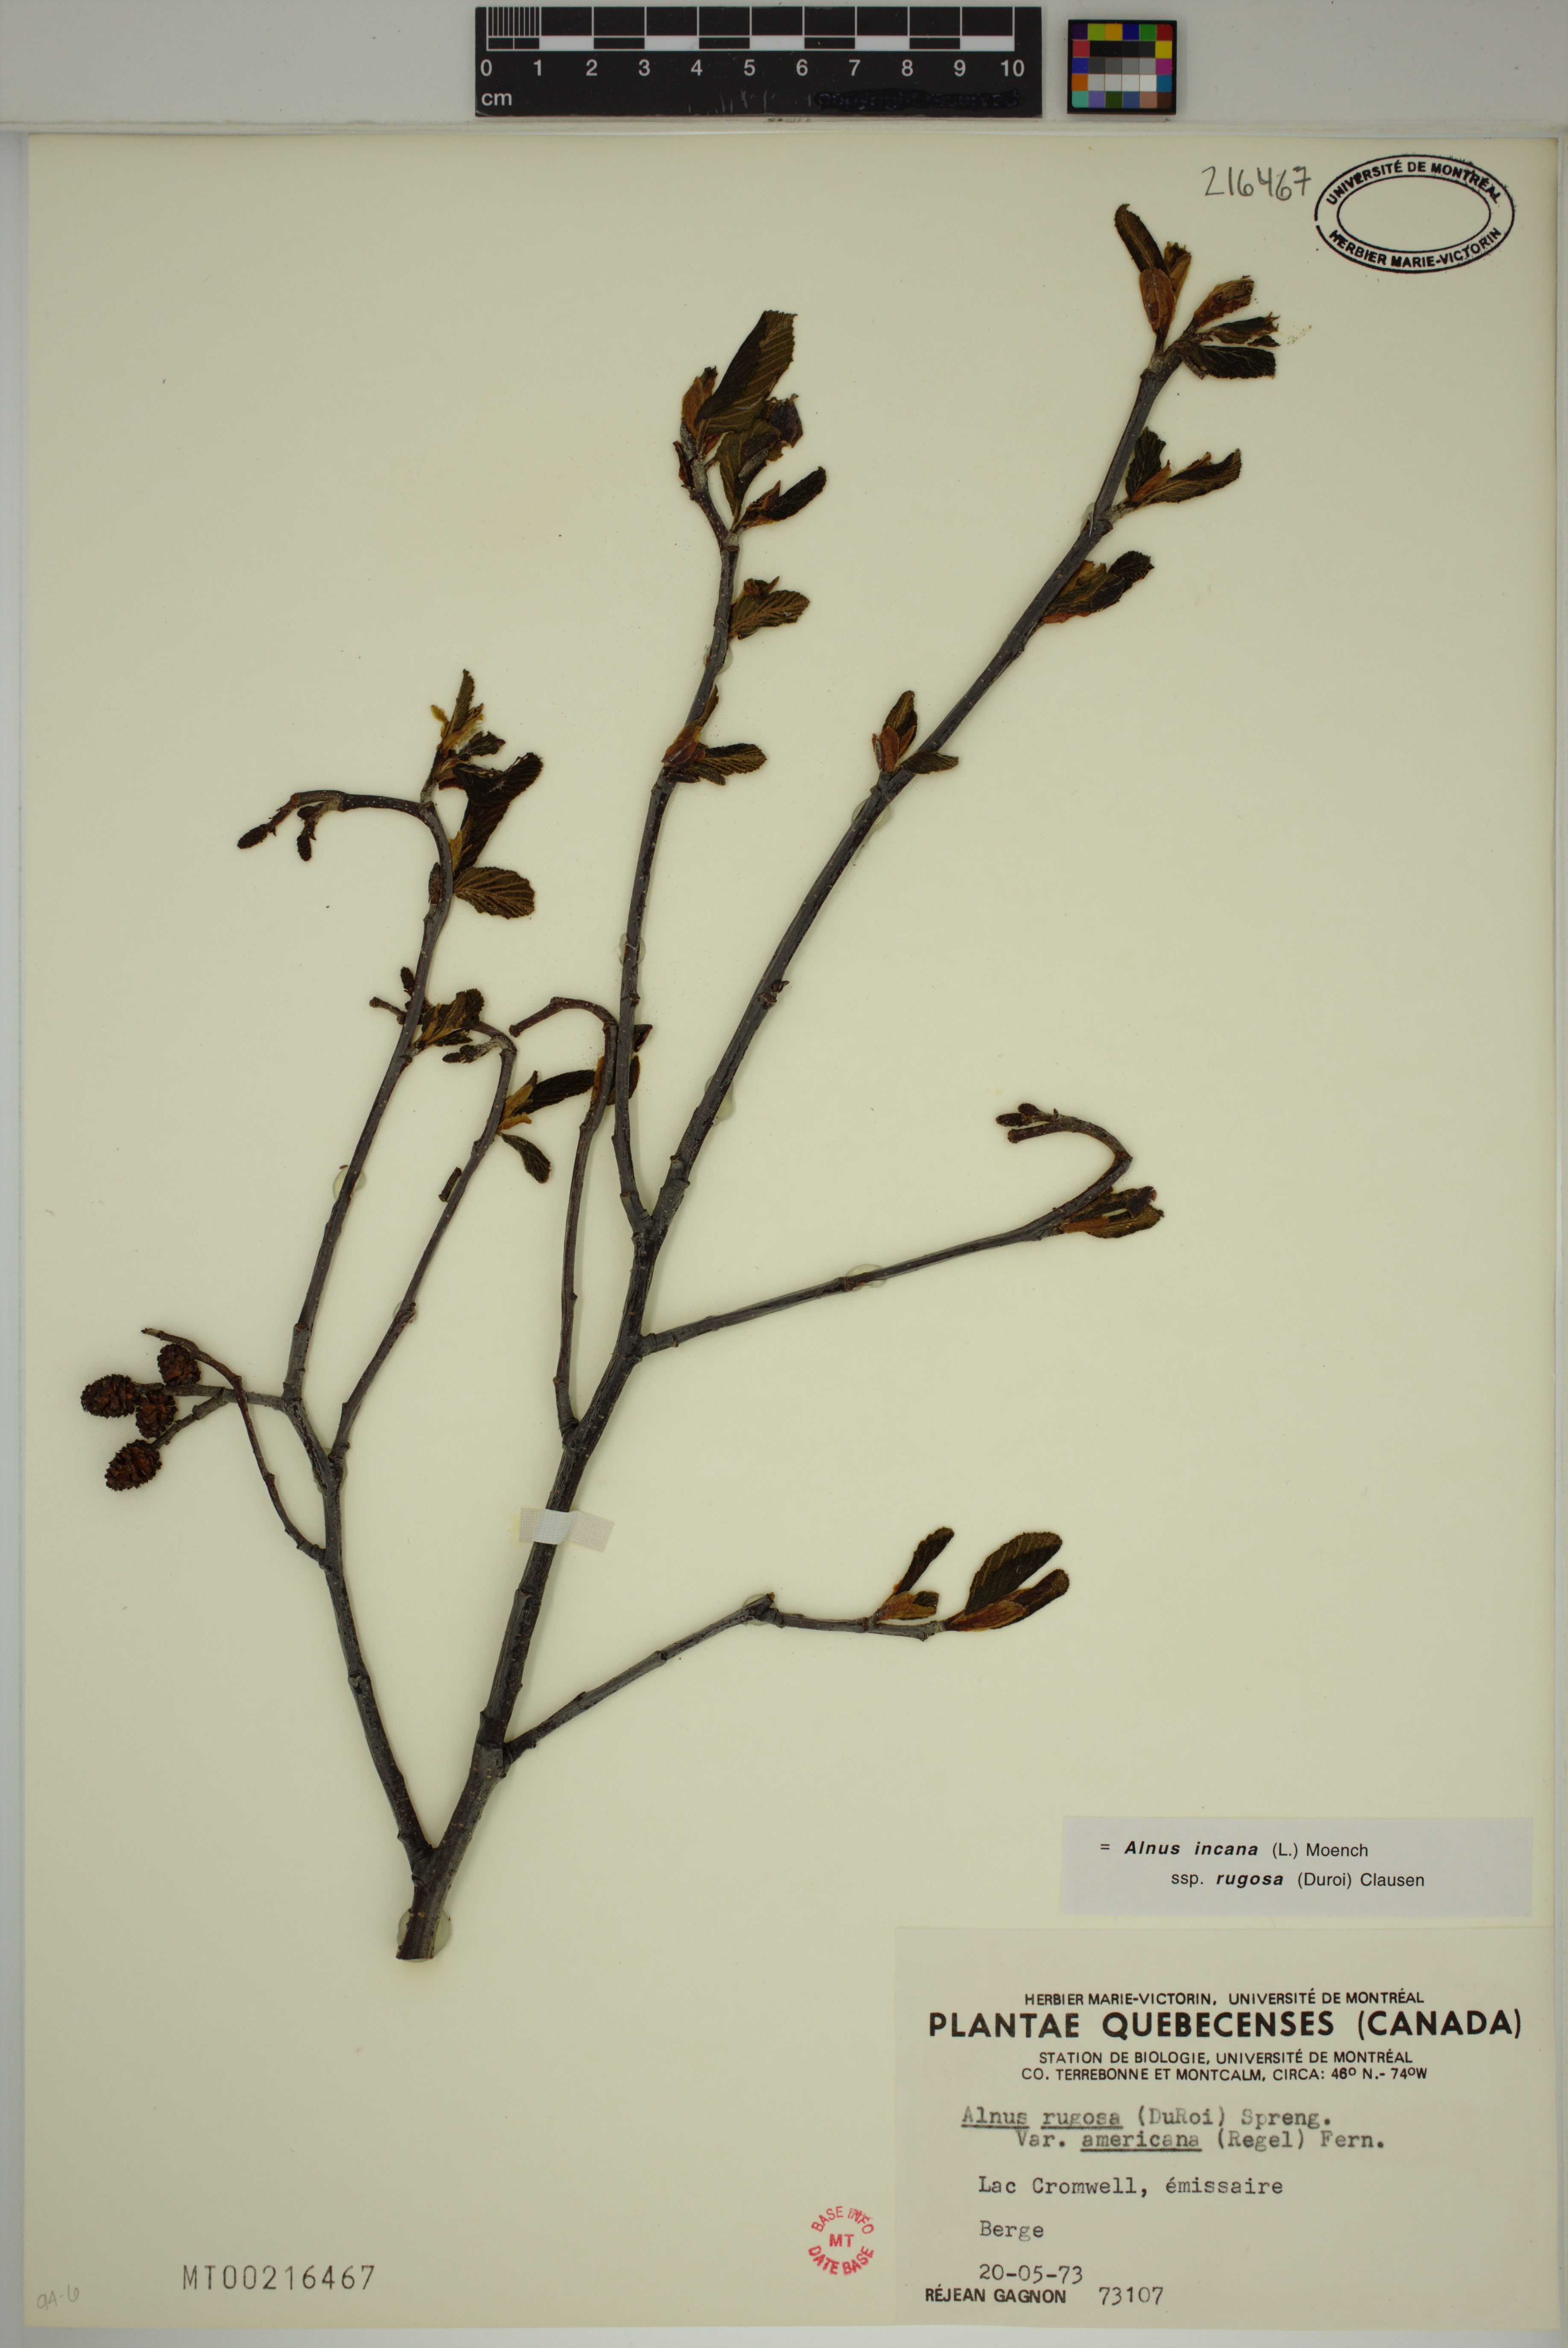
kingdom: Plantae
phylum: Tracheophyta
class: Magnoliopsida
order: Fagales
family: Betulaceae
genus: Alnus
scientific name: Alnus incana
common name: Grey alder
